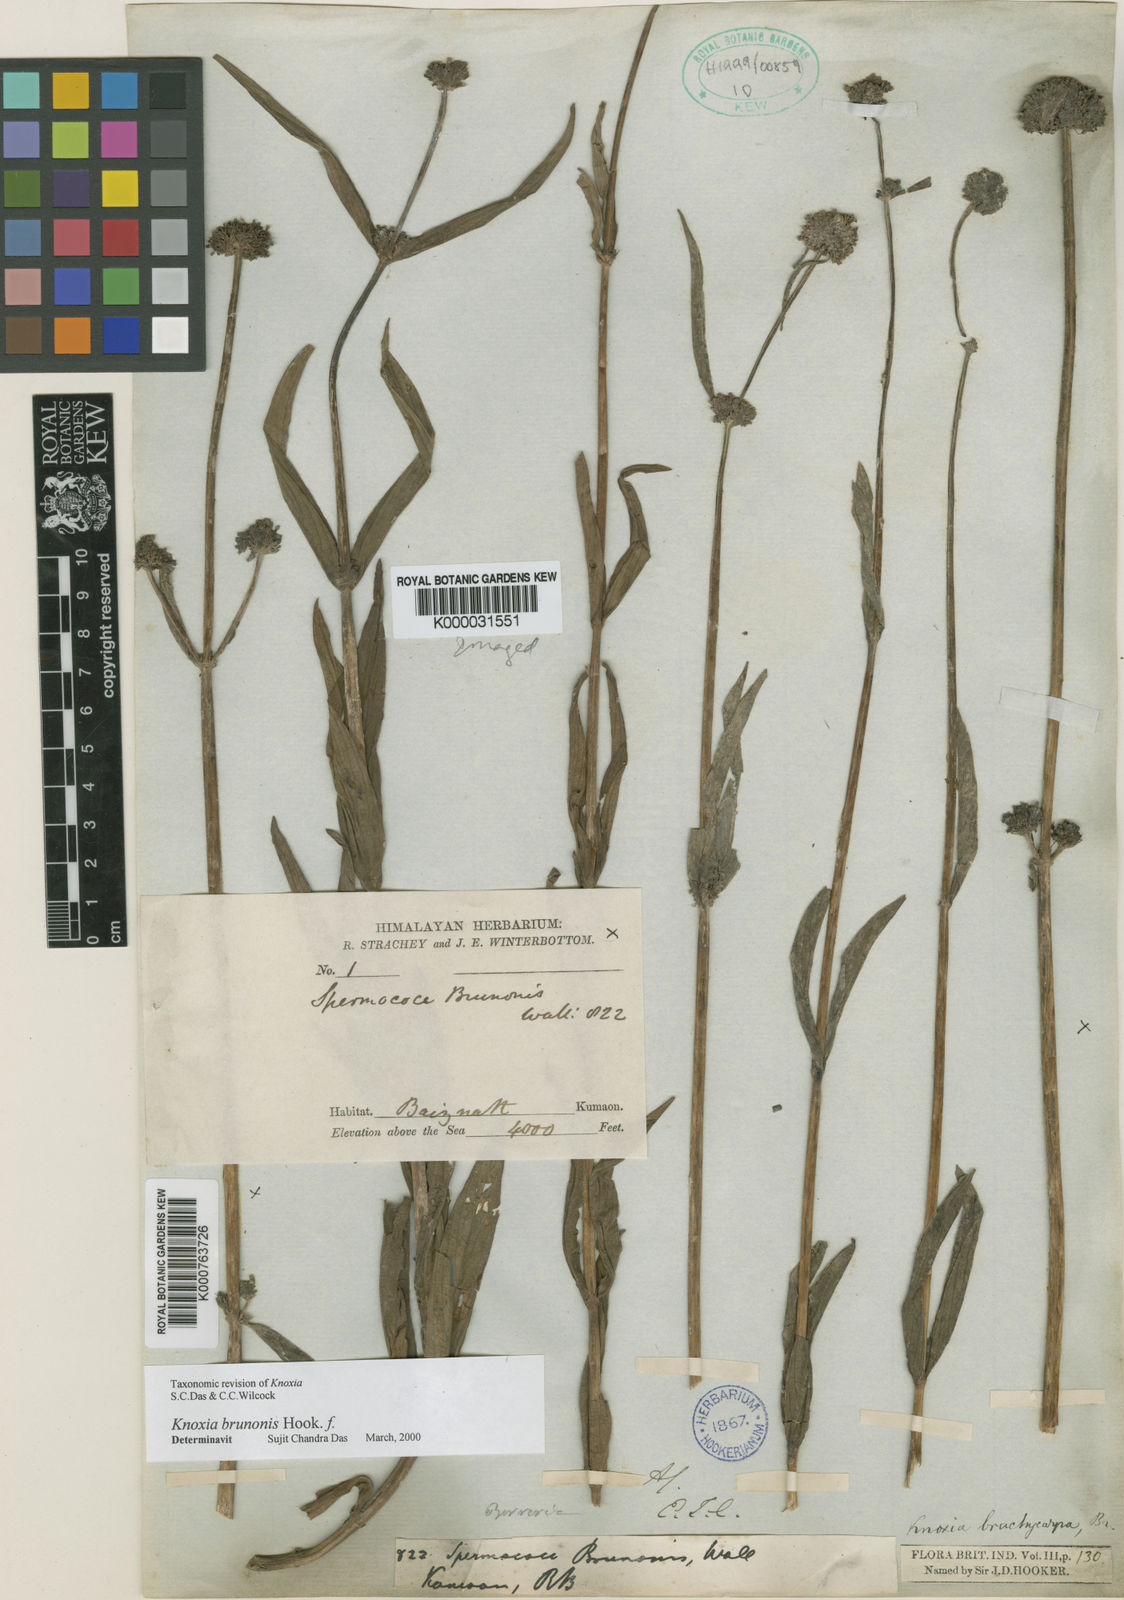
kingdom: Plantae
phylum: Tracheophyta
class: Magnoliopsida
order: Gentianales
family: Rubiaceae
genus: Knoxia
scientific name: Knoxia
